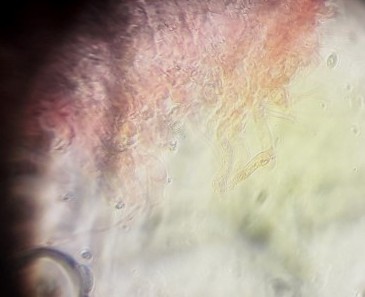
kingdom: Fungi
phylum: Basidiomycota
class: Agaricomycetes
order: Agaricales
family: Entolomataceae
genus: Clitopilus
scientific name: Clitopilus
